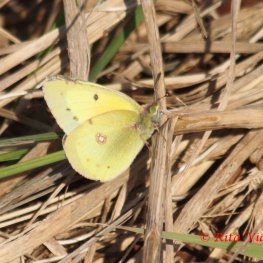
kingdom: Animalia
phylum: Arthropoda
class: Insecta
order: Lepidoptera
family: Pieridae
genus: Colias
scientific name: Colias eurytheme
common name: Orange Sulphur
